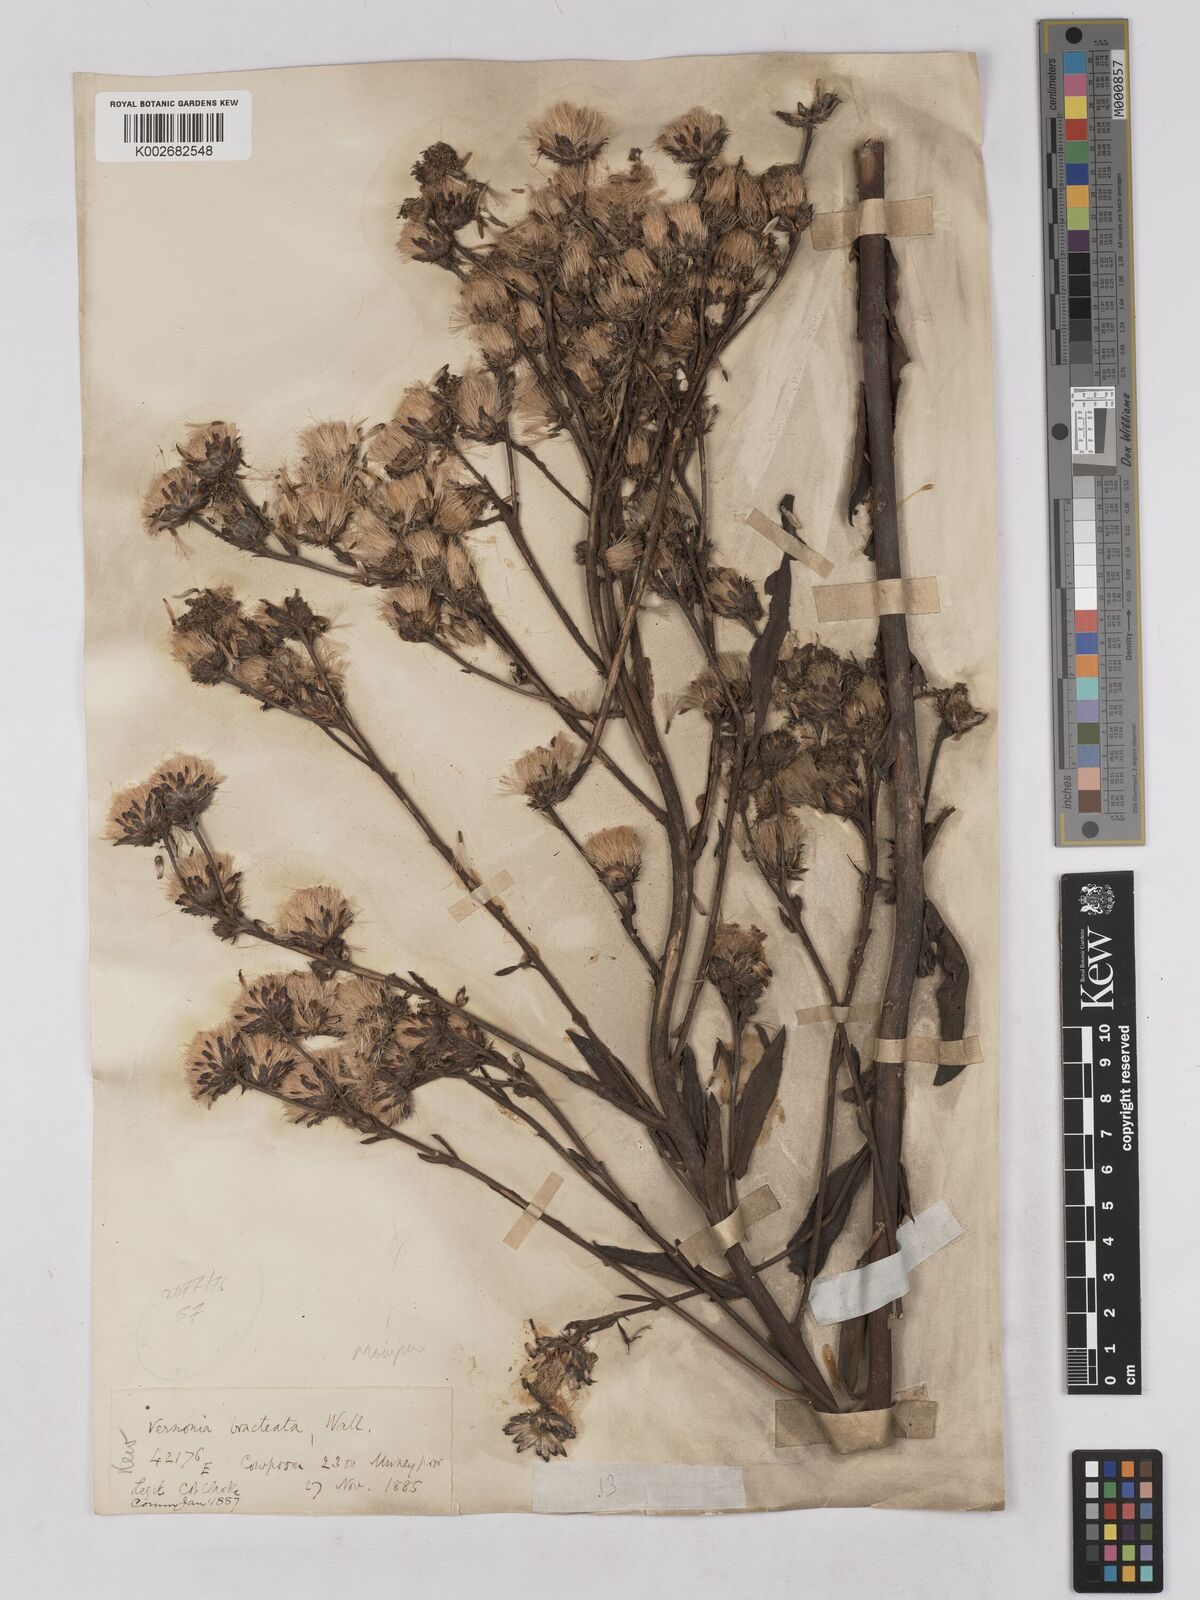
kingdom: Plantae
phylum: Tracheophyta
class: Magnoliopsida
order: Asterales
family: Asteraceae
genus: Acilepis
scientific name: Acilepis silhetensis
